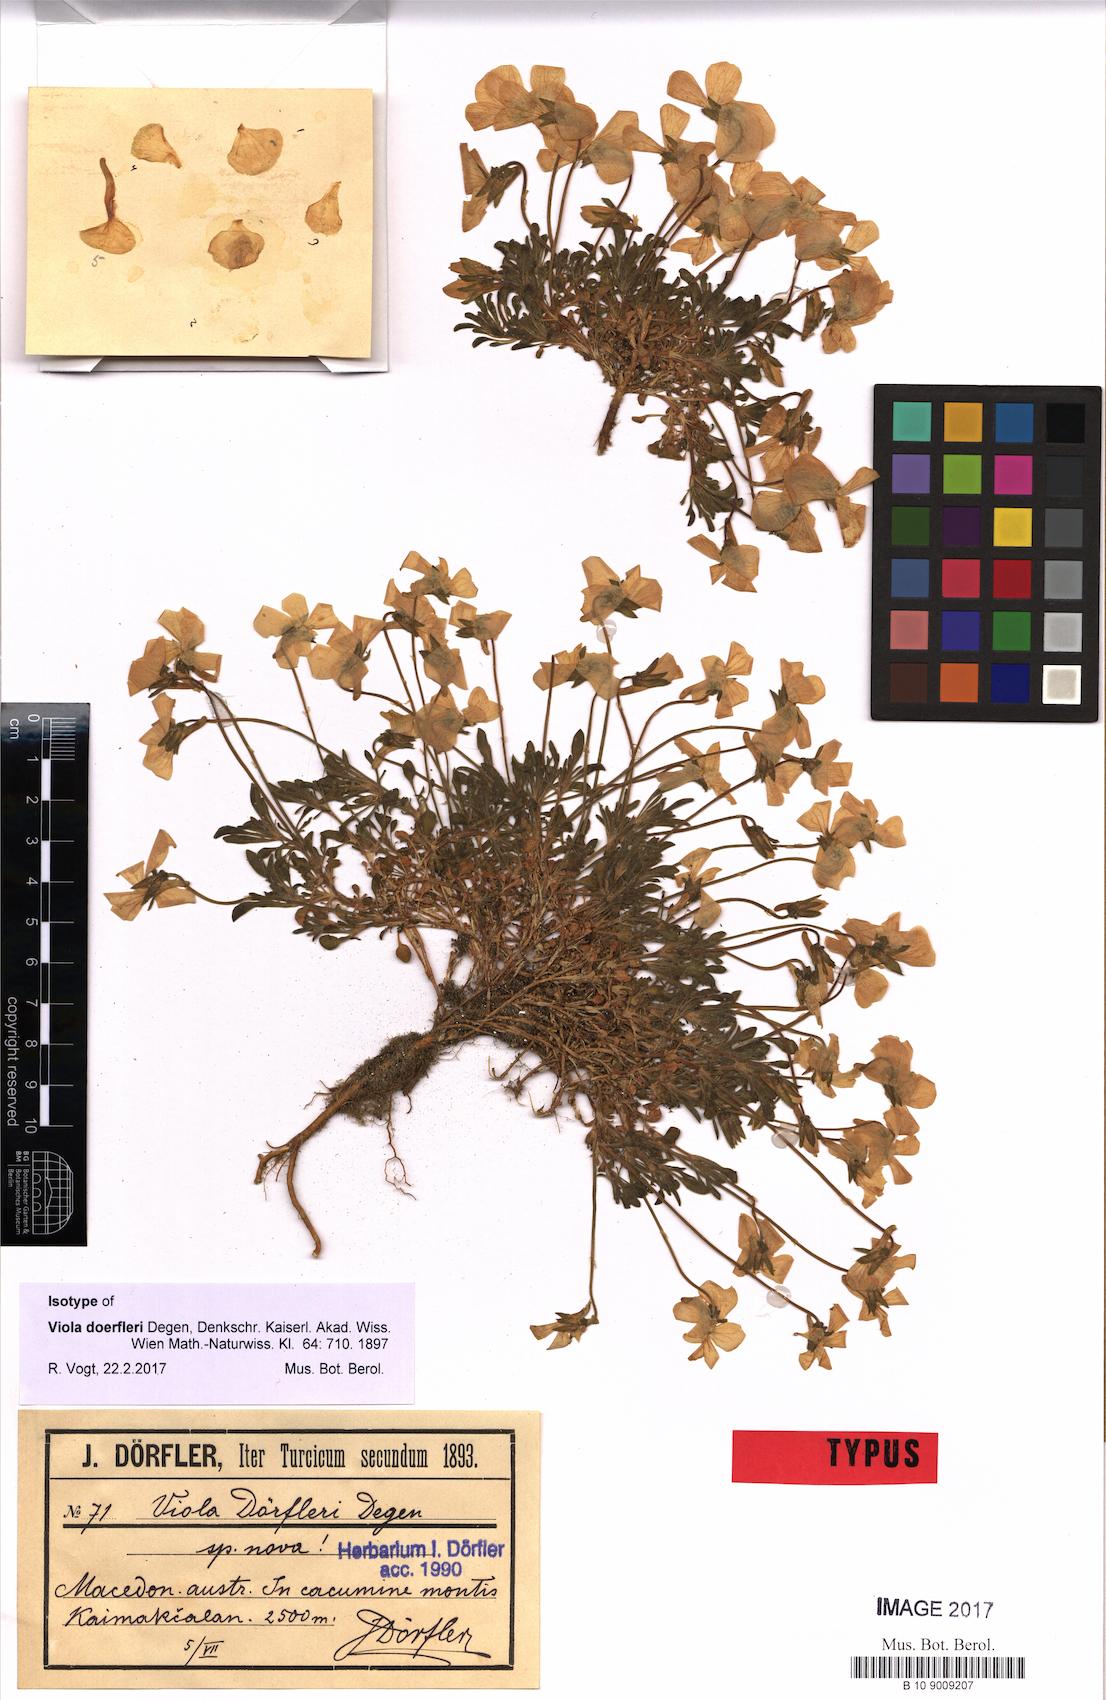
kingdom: Plantae
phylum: Tracheophyta
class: Magnoliopsida
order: Malpighiales
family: Violaceae
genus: Viola
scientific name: Viola doerfleri
